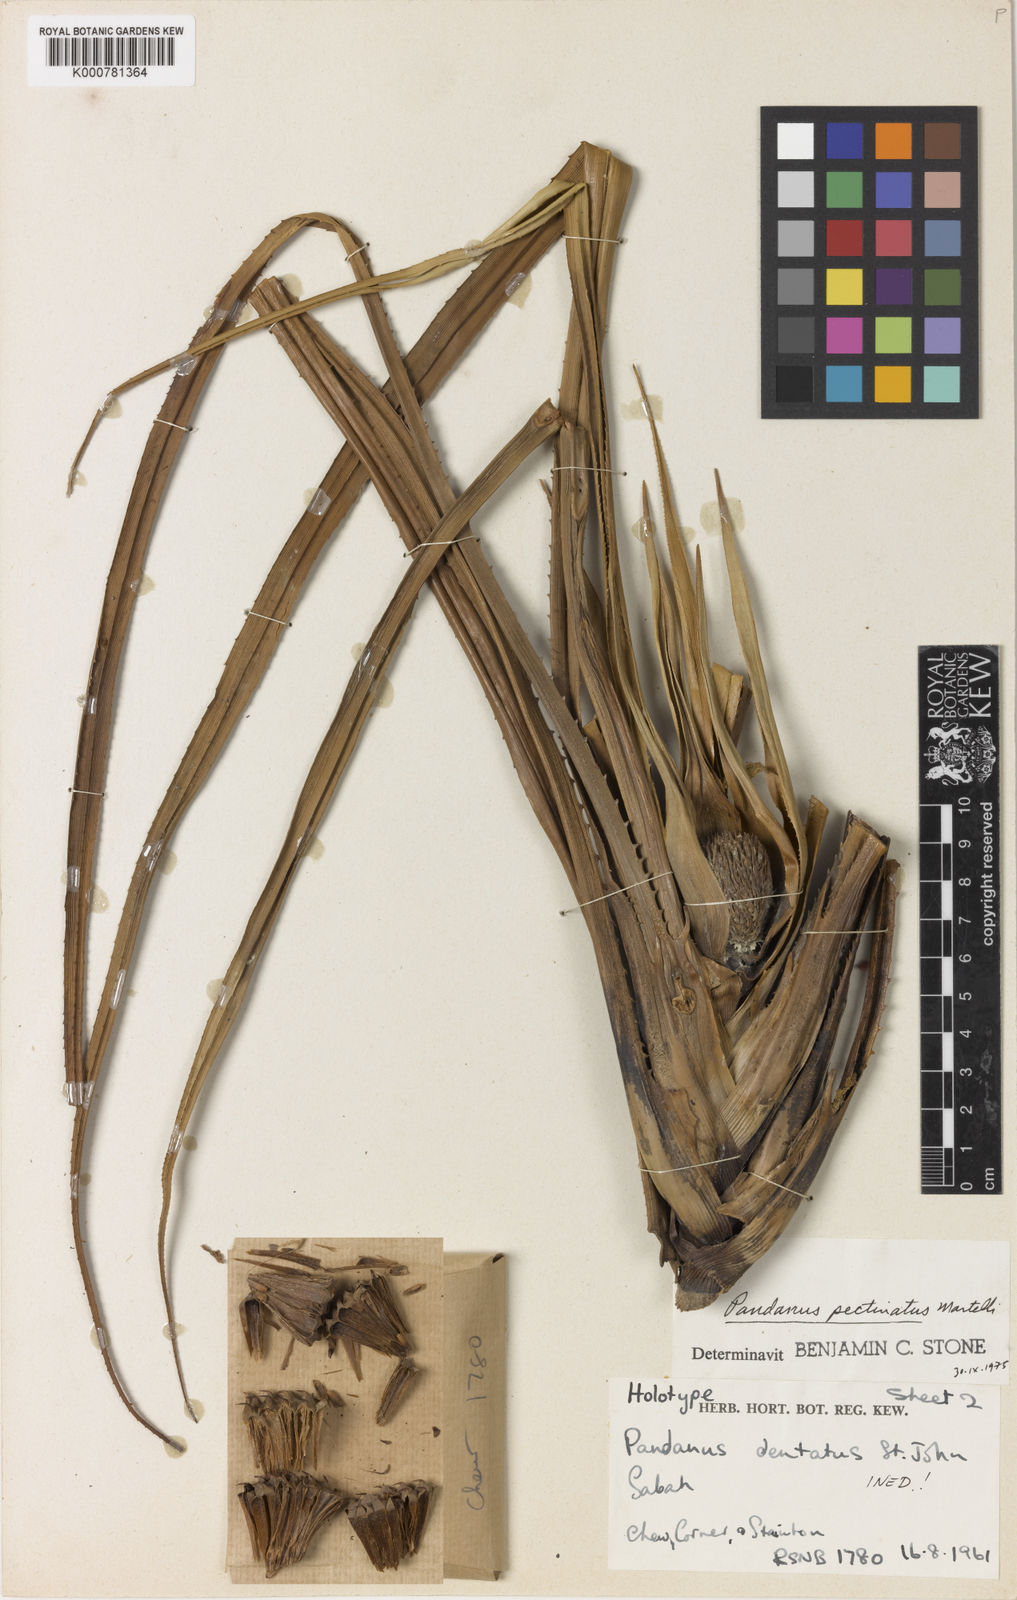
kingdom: Plantae
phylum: Tracheophyta
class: Liliopsida
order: Pandanales
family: Pandanaceae
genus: Benstonea
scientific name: Benstonea pectinata
